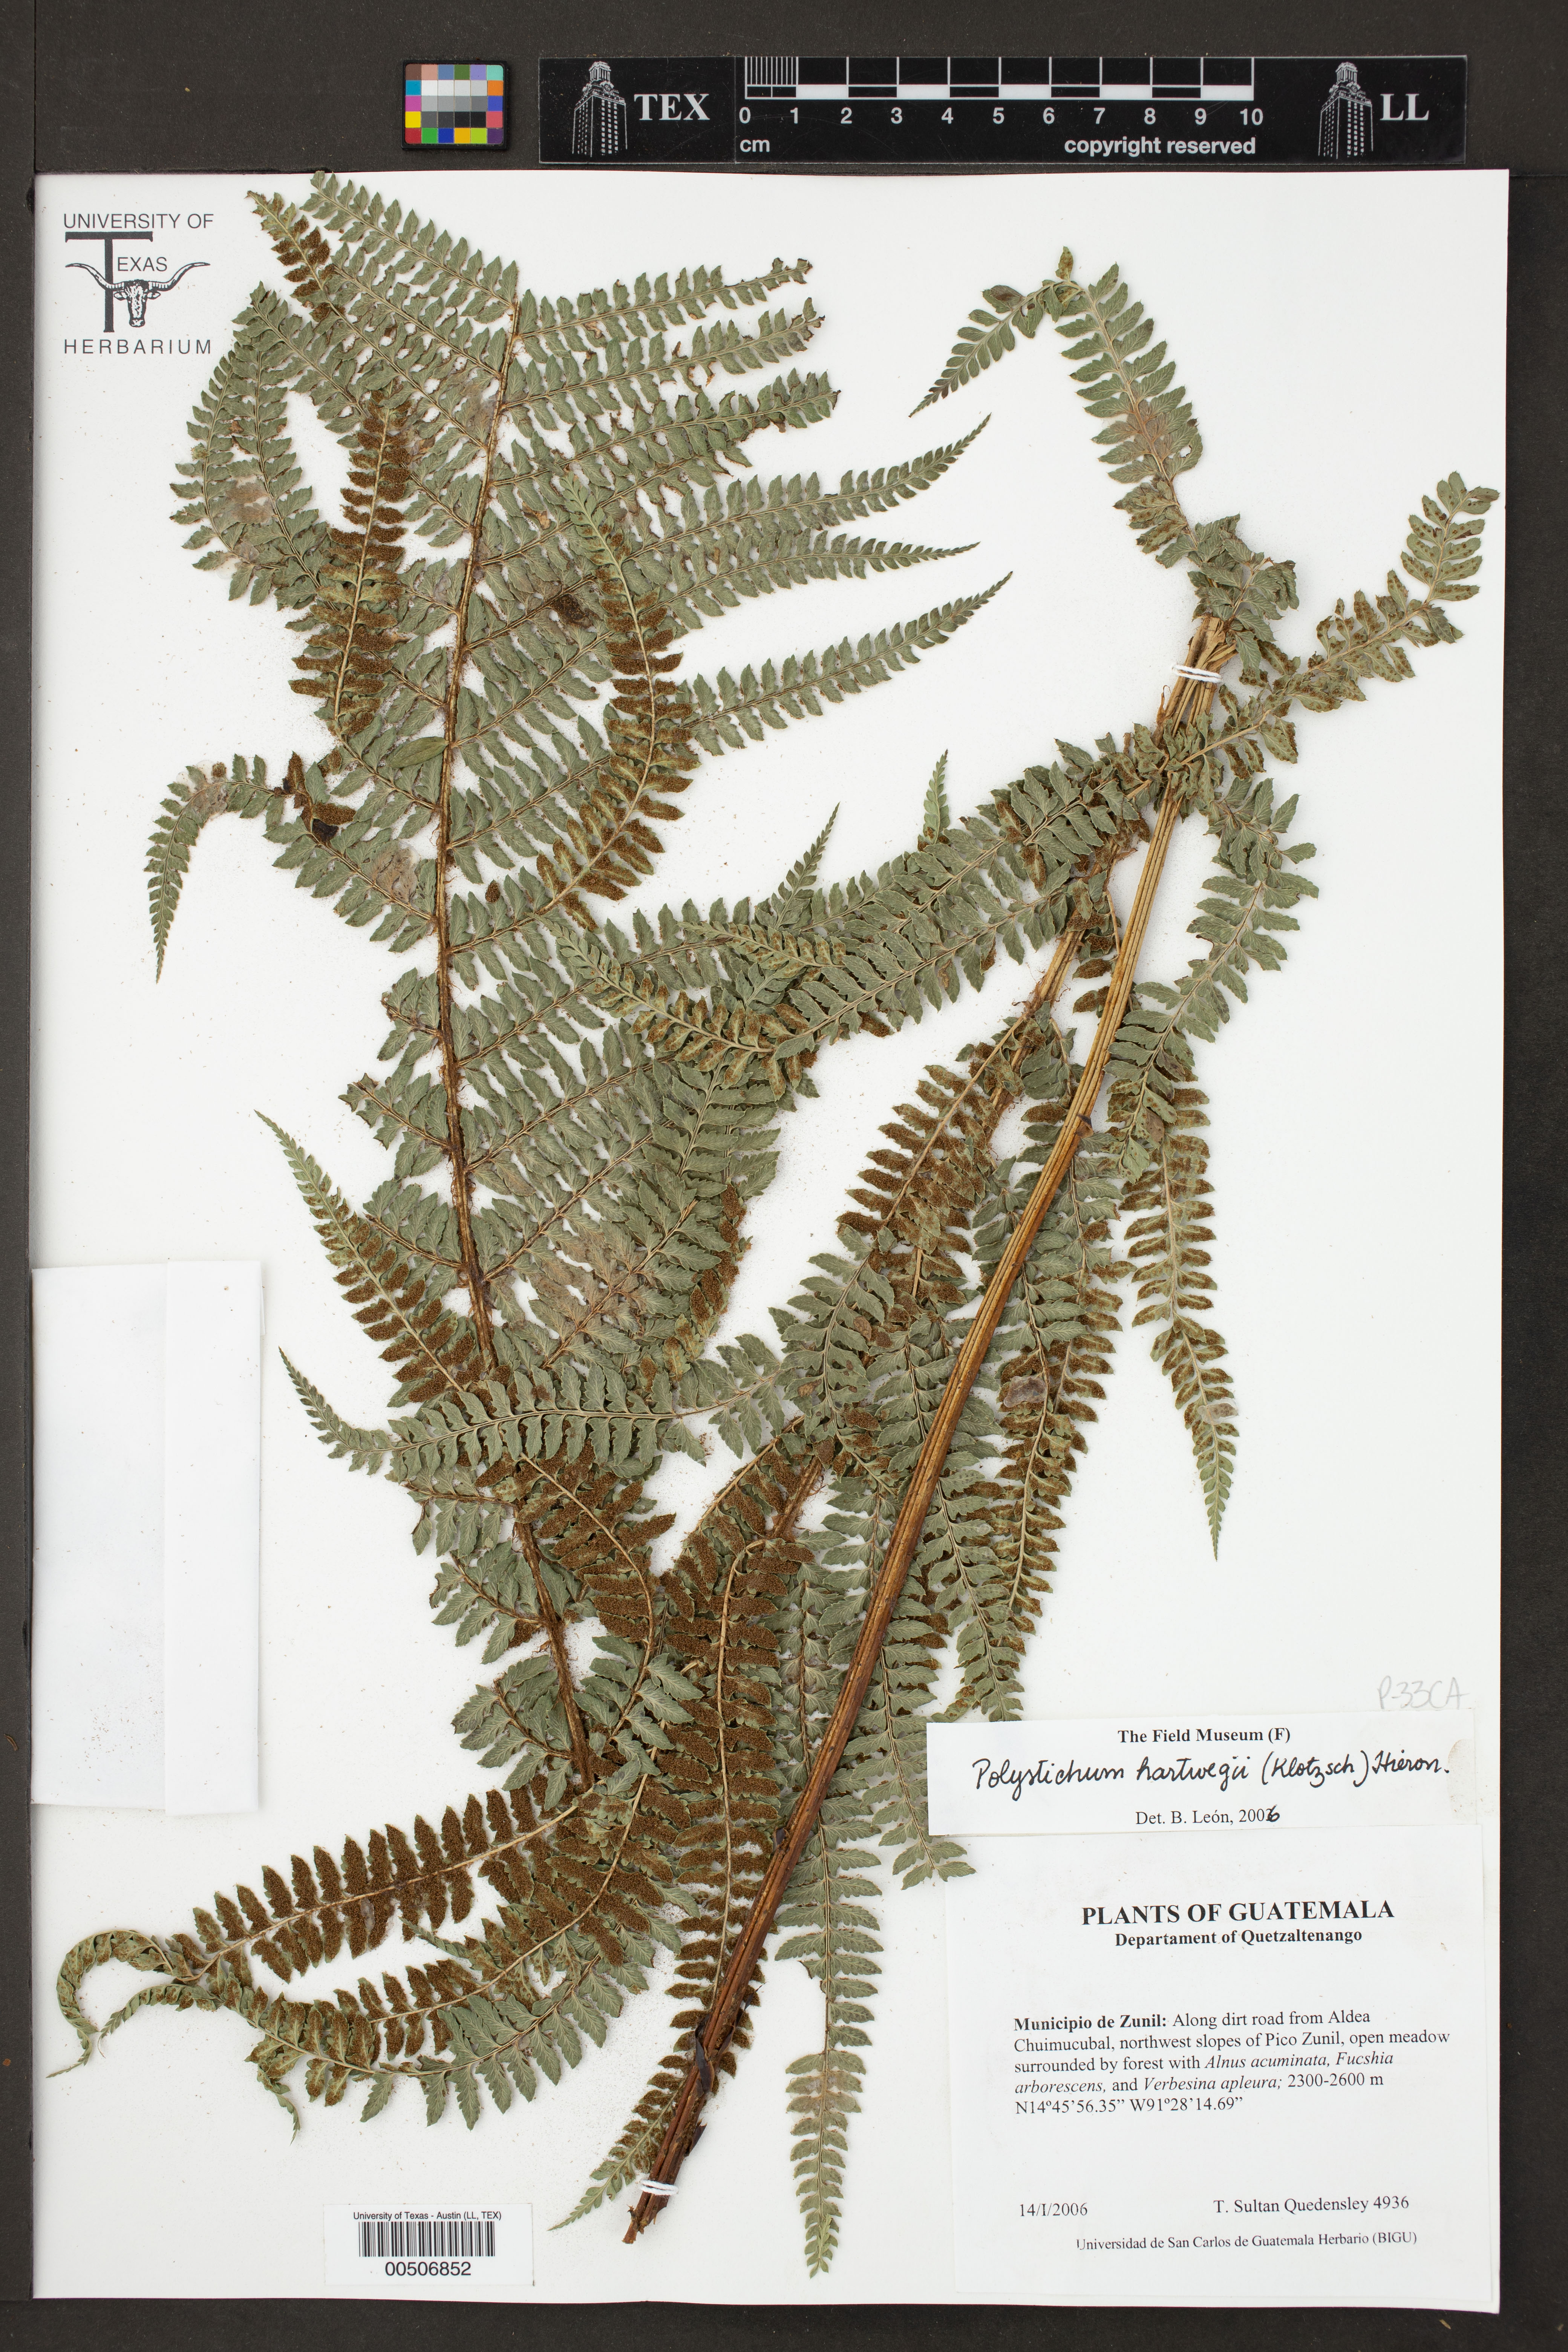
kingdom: Plantae
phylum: Tracheophyta
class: Polypodiopsida
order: Polypodiales
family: Dryopteridaceae
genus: Polystichum
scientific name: Polystichum hartwegii
